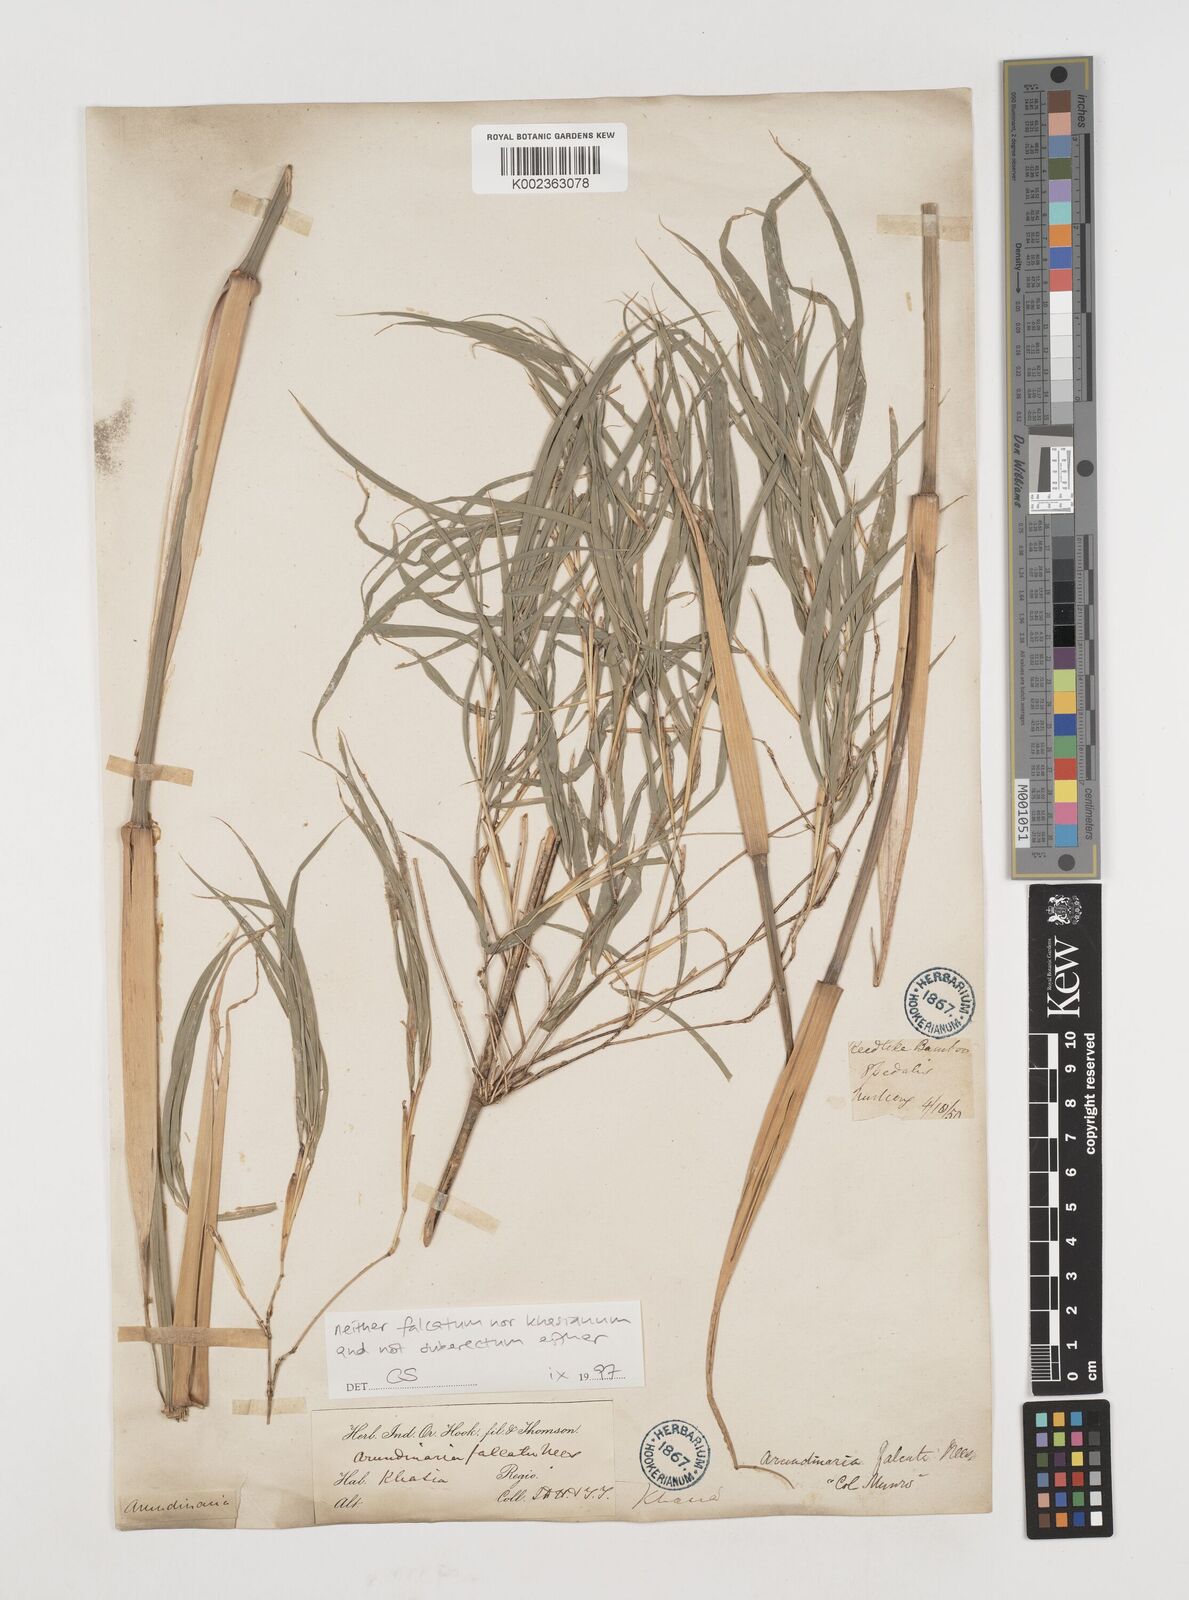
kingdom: Plantae
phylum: Tracheophyta
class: Liliopsida
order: Poales
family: Poaceae
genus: Drepanostachyum
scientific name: Drepanostachyum
